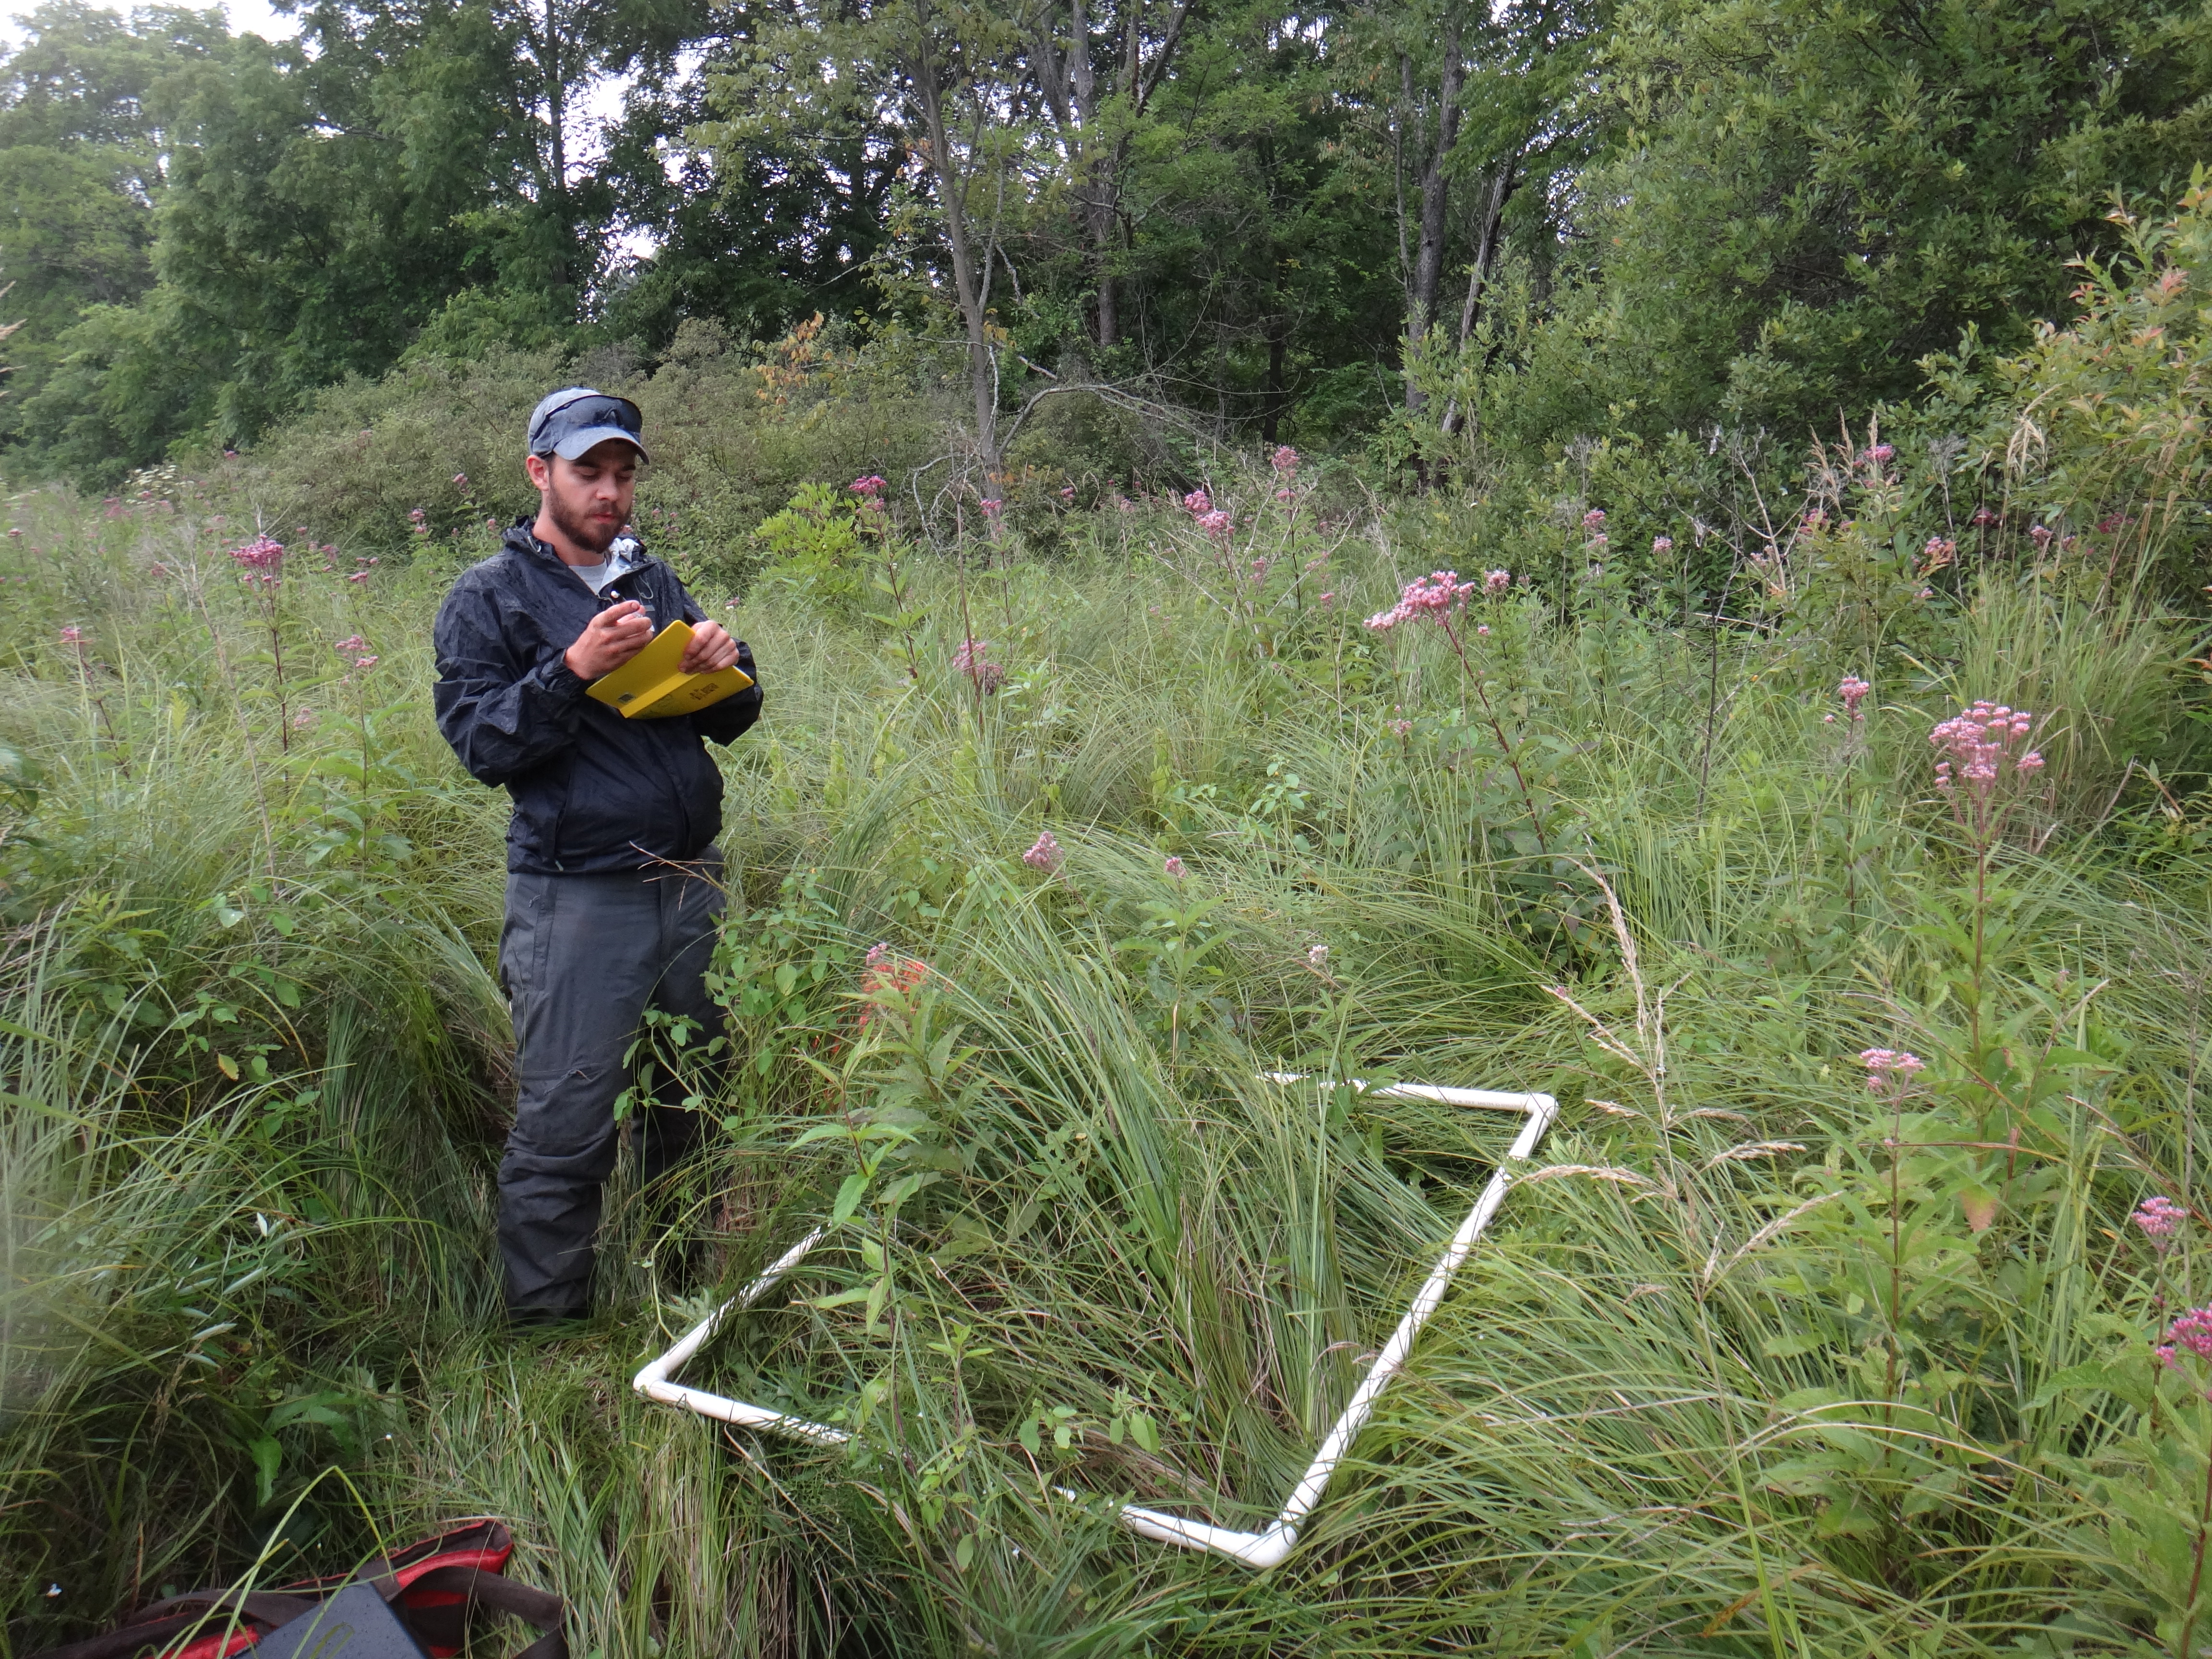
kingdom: Plantae
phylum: Tracheophyta
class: Magnoliopsida
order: Asterales
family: Asteraceae
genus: Eutrochium
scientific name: Eutrochium maculatum
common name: Spotted joe pye weed
